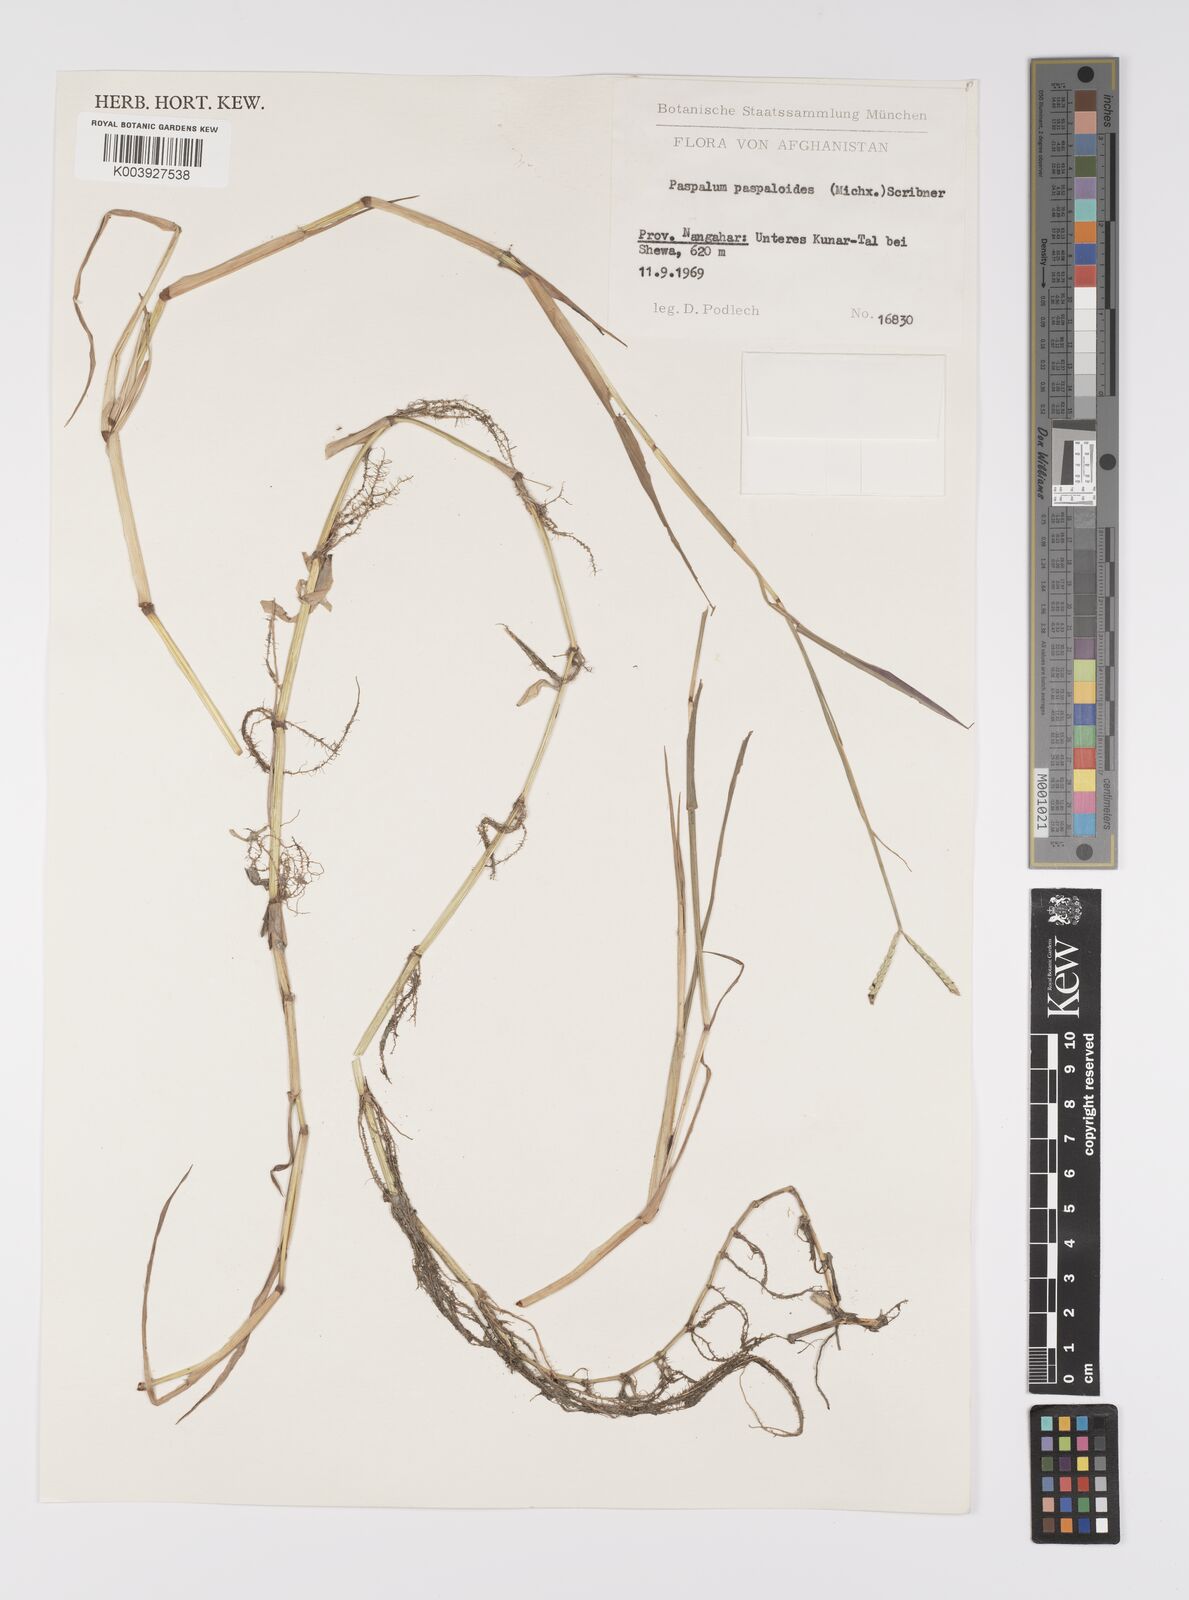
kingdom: Plantae
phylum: Tracheophyta
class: Liliopsida
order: Poales
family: Poaceae
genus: Paspalum
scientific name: Paspalum distichum
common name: Knotgrass
